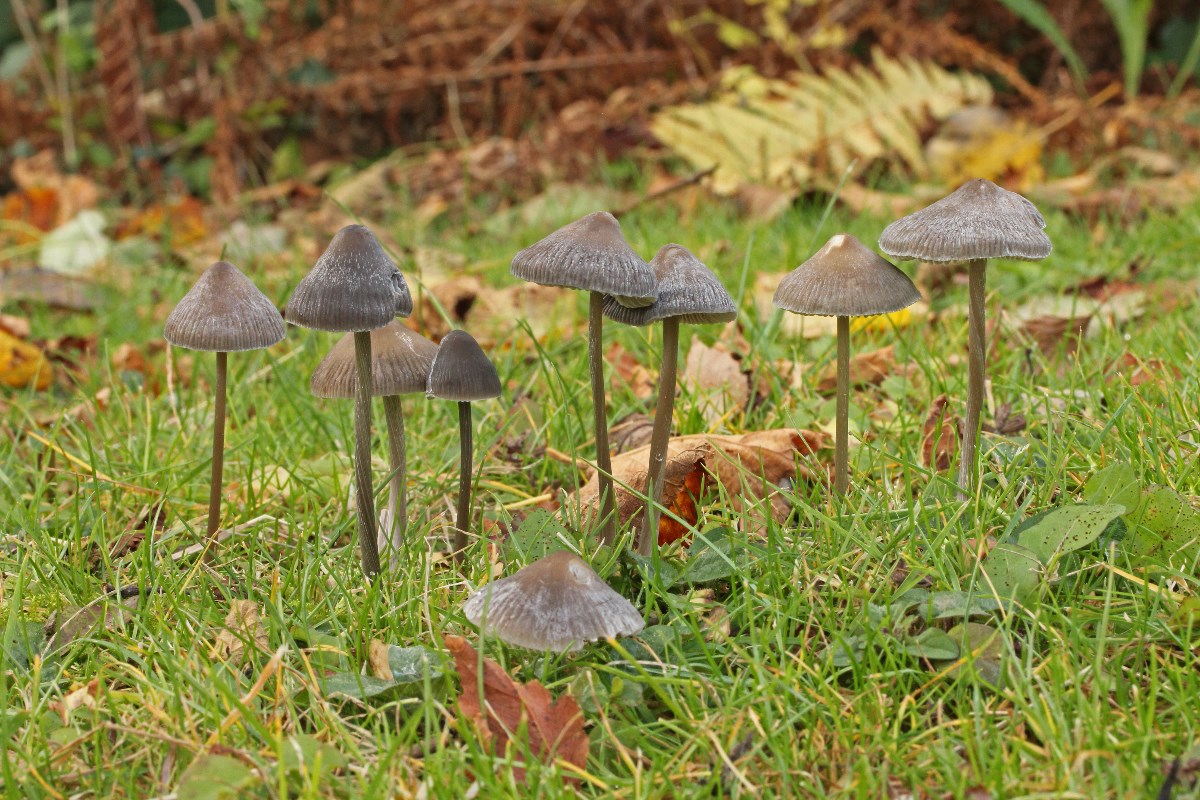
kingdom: Fungi
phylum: Basidiomycota
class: Agaricomycetes
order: Agaricales
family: Mycenaceae
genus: Mycena
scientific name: Mycena polygramma
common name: mangestribet huesvamp
